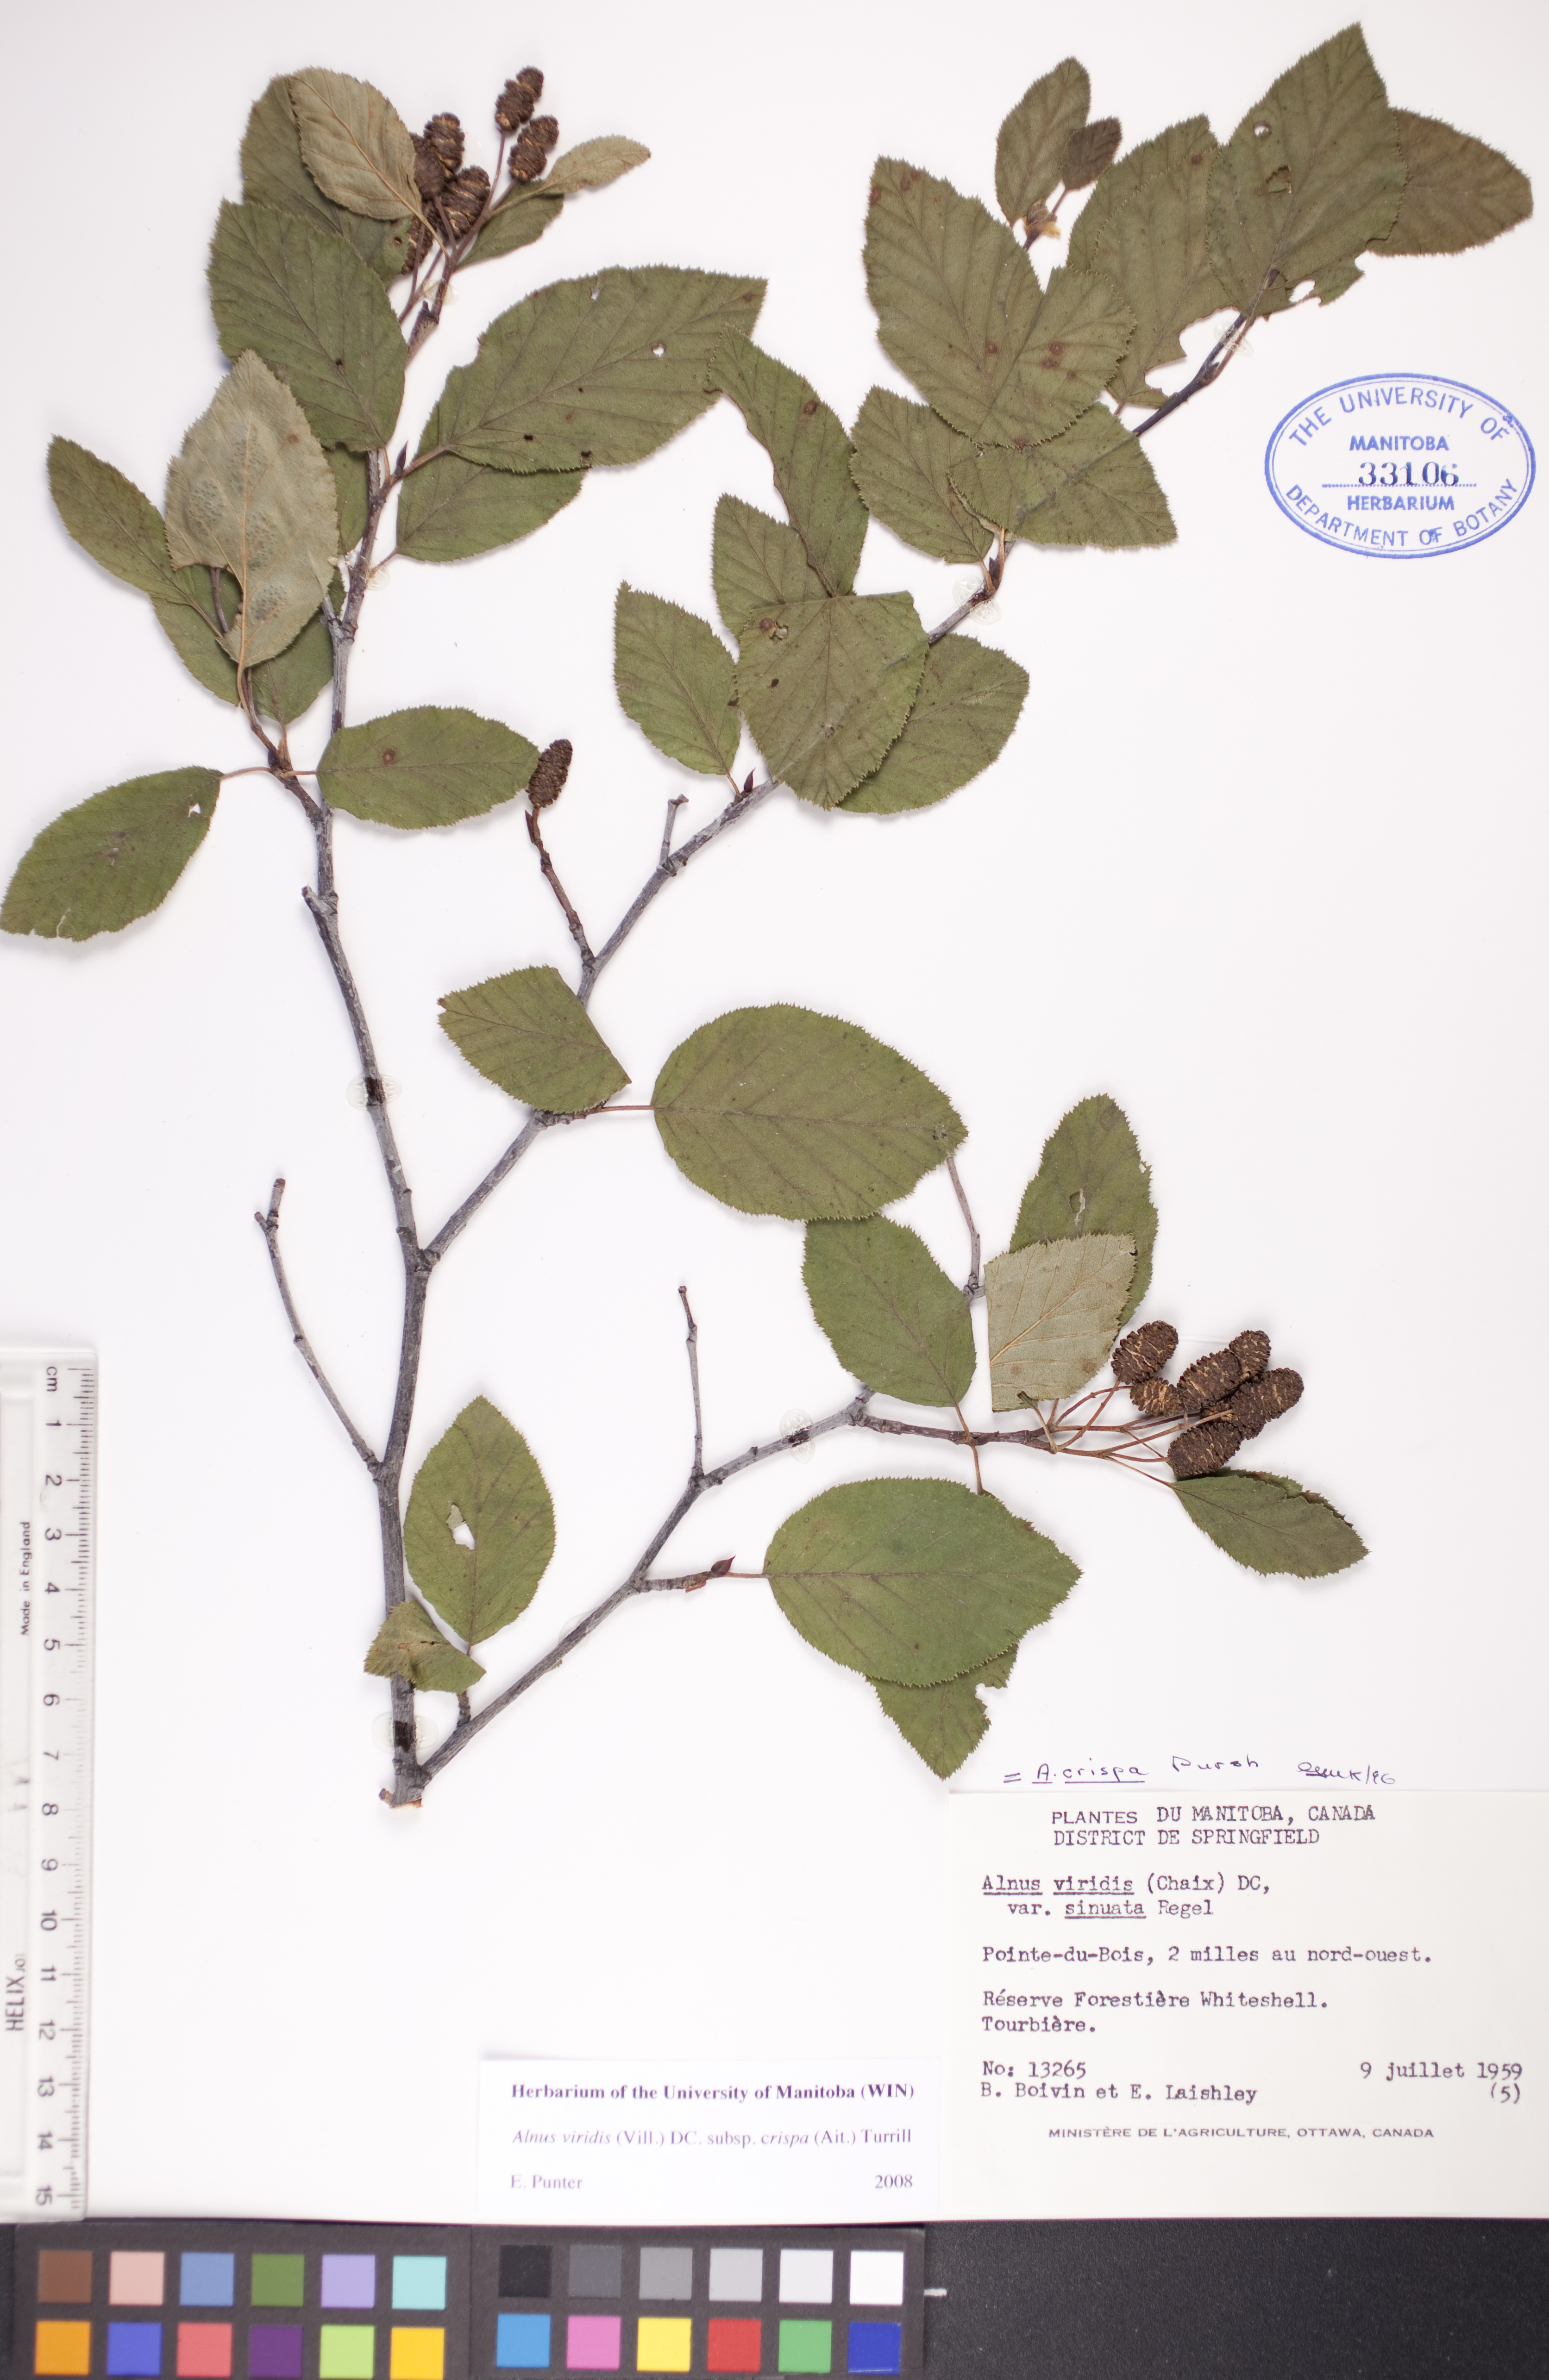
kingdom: Plantae
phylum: Tracheophyta
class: Magnoliopsida
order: Fagales
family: Betulaceae
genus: Alnus
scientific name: Alnus alnobetula
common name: Green alder
